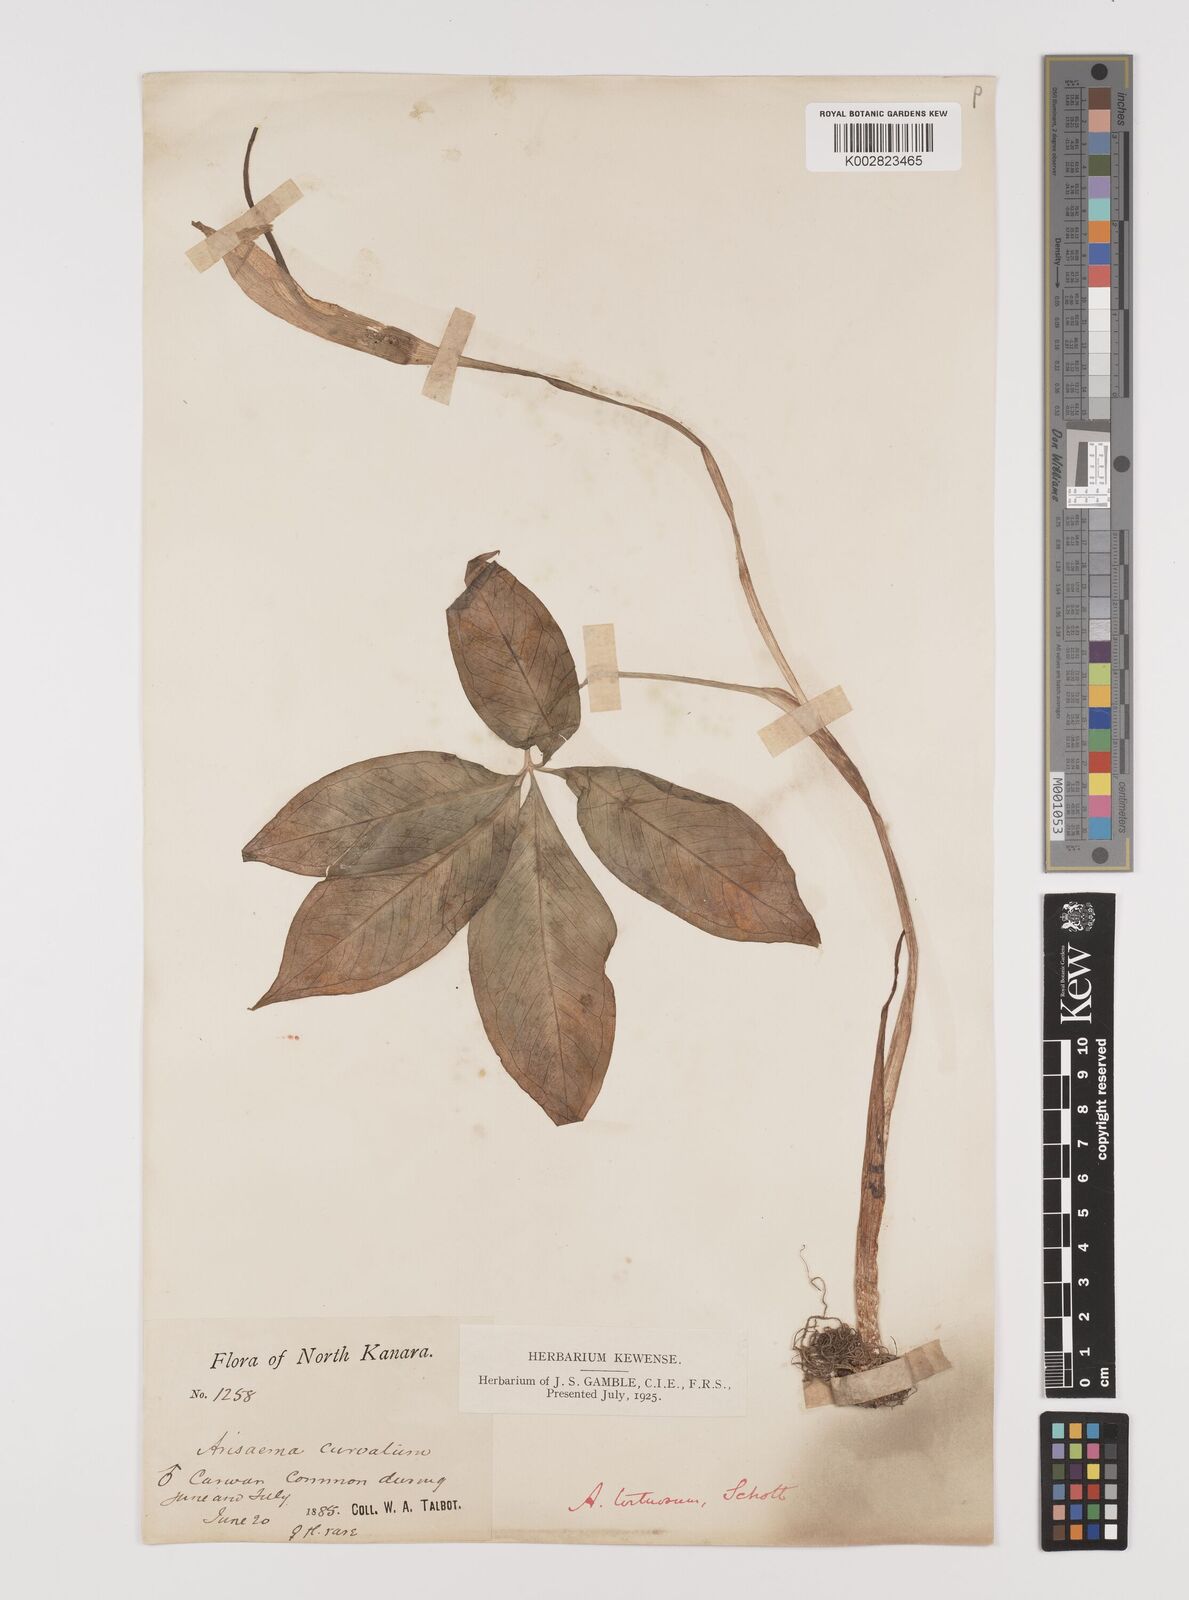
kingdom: Plantae
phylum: Tracheophyta
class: Liliopsida
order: Alismatales
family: Araceae
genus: Arisaema
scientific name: Arisaema
